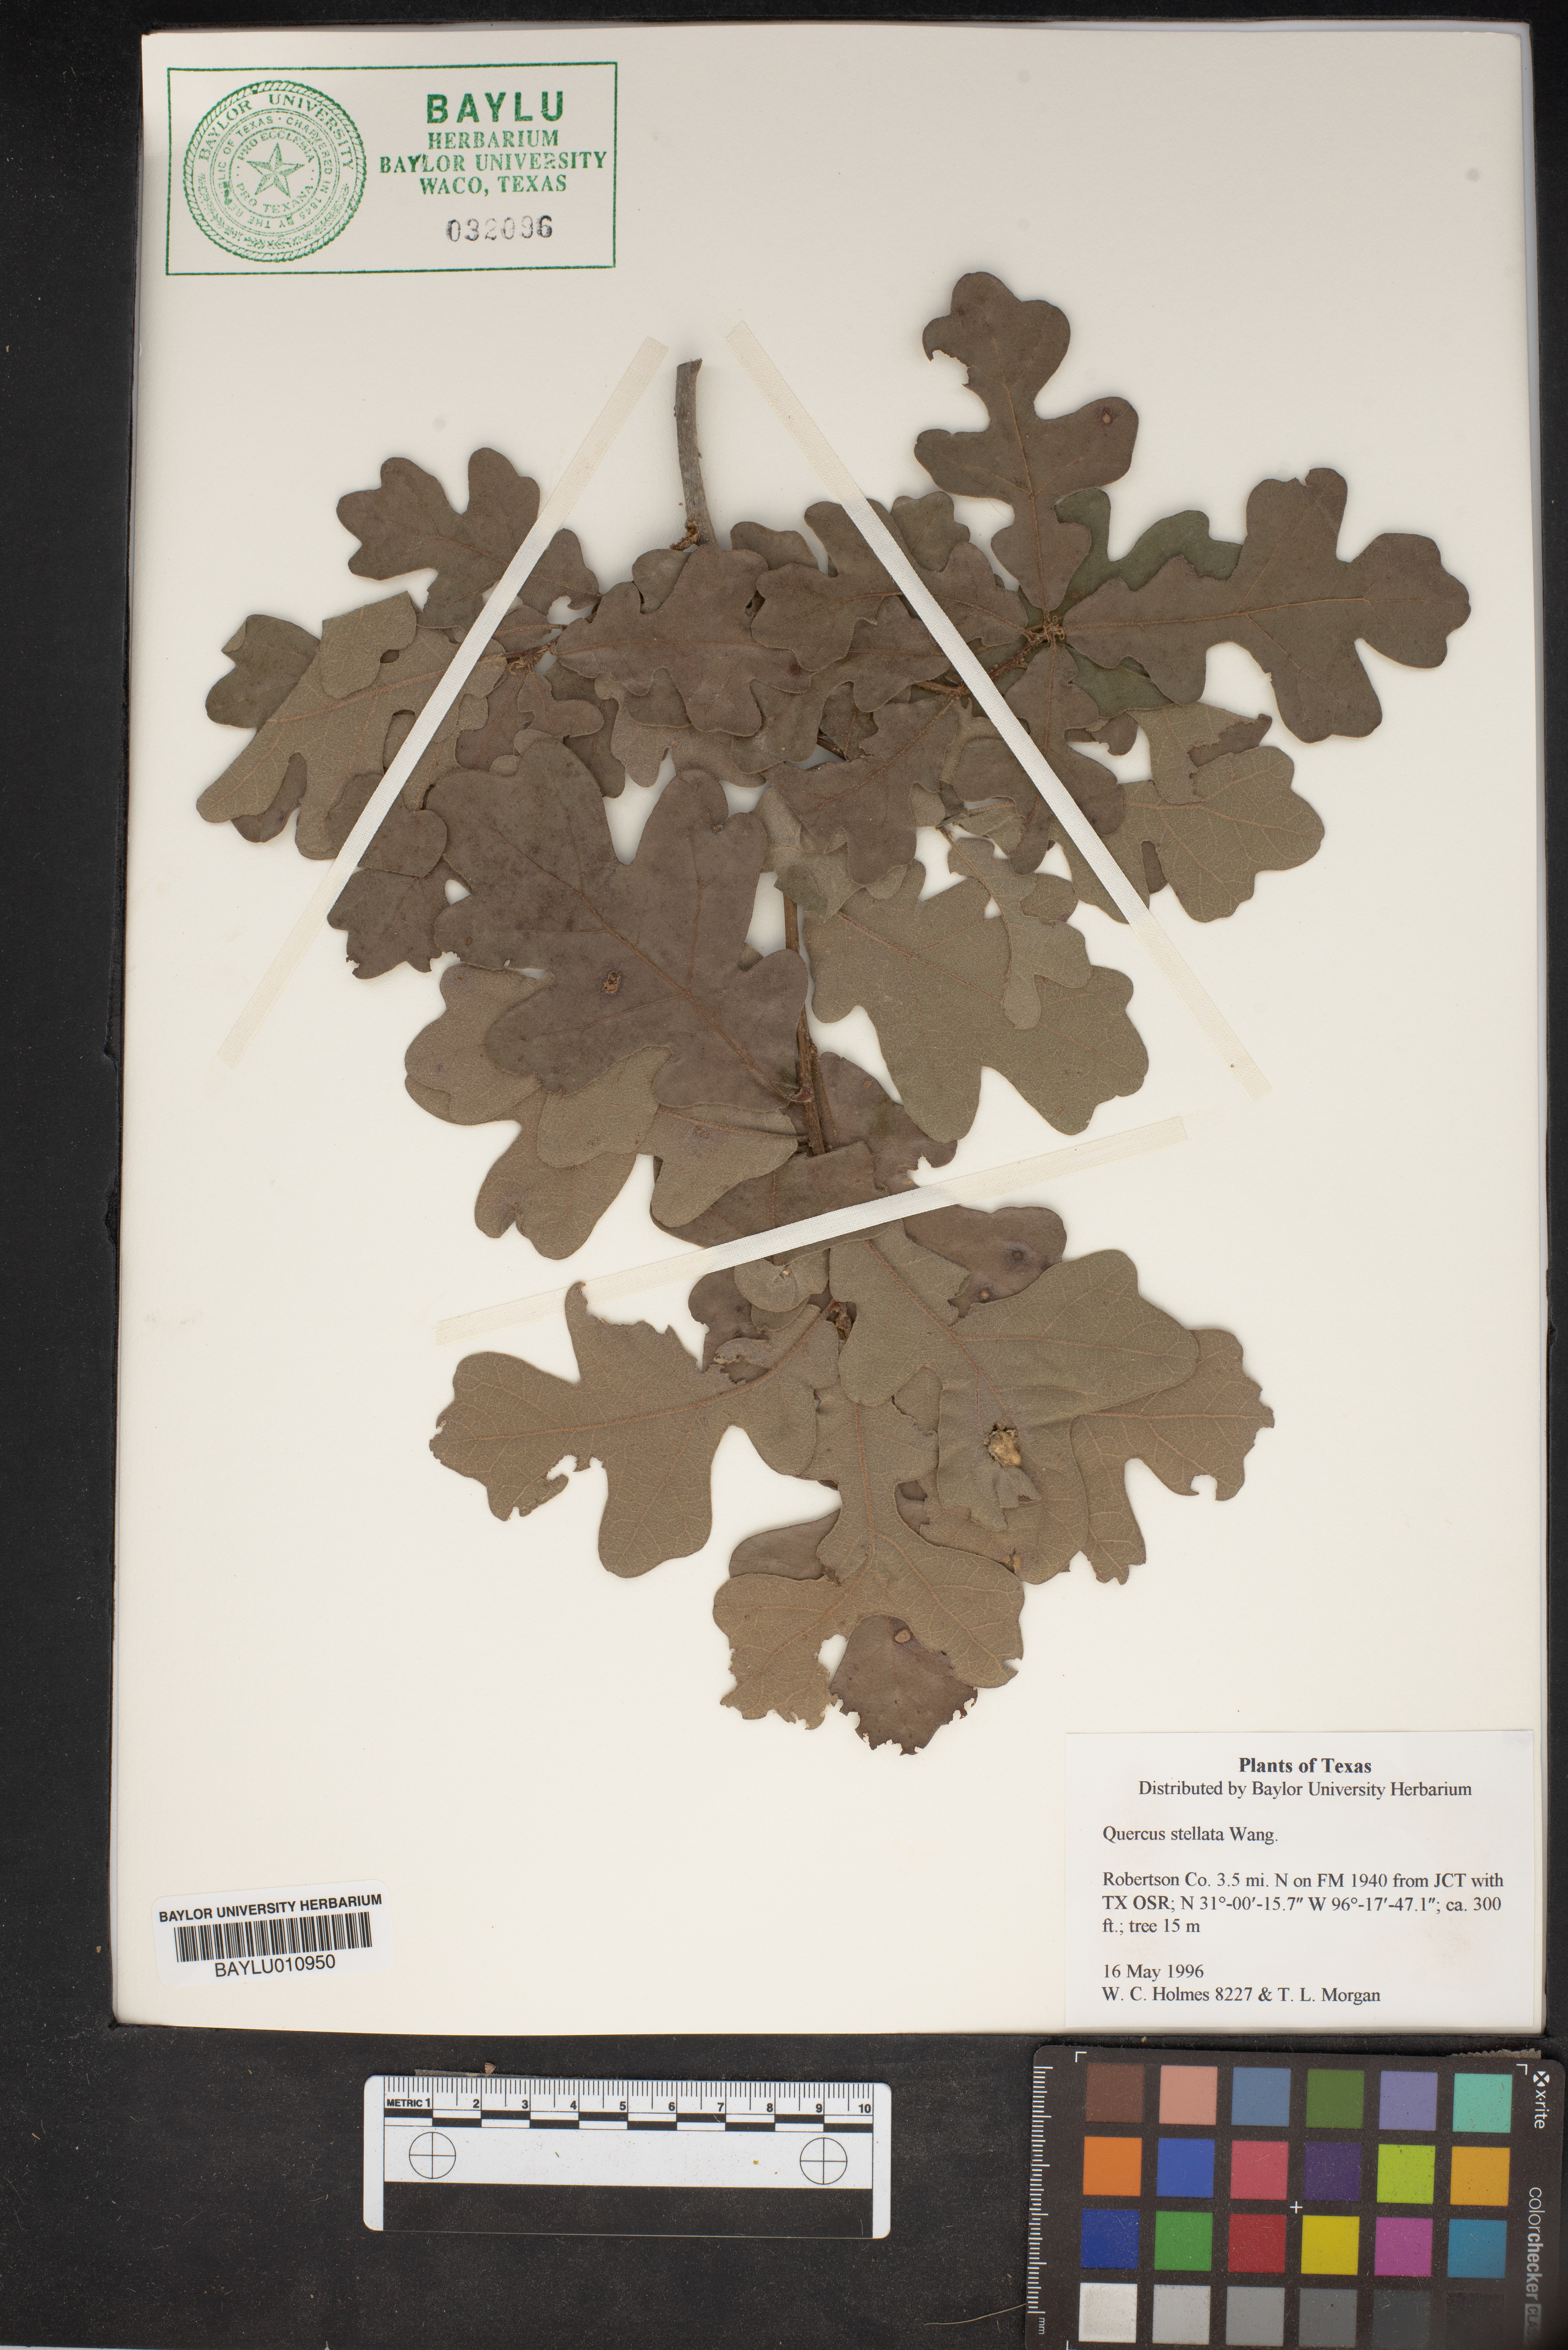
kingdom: Plantae
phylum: Tracheophyta
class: Magnoliopsida
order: Fagales
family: Fagaceae
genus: Quercus
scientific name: Quercus stellata
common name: Post oak
